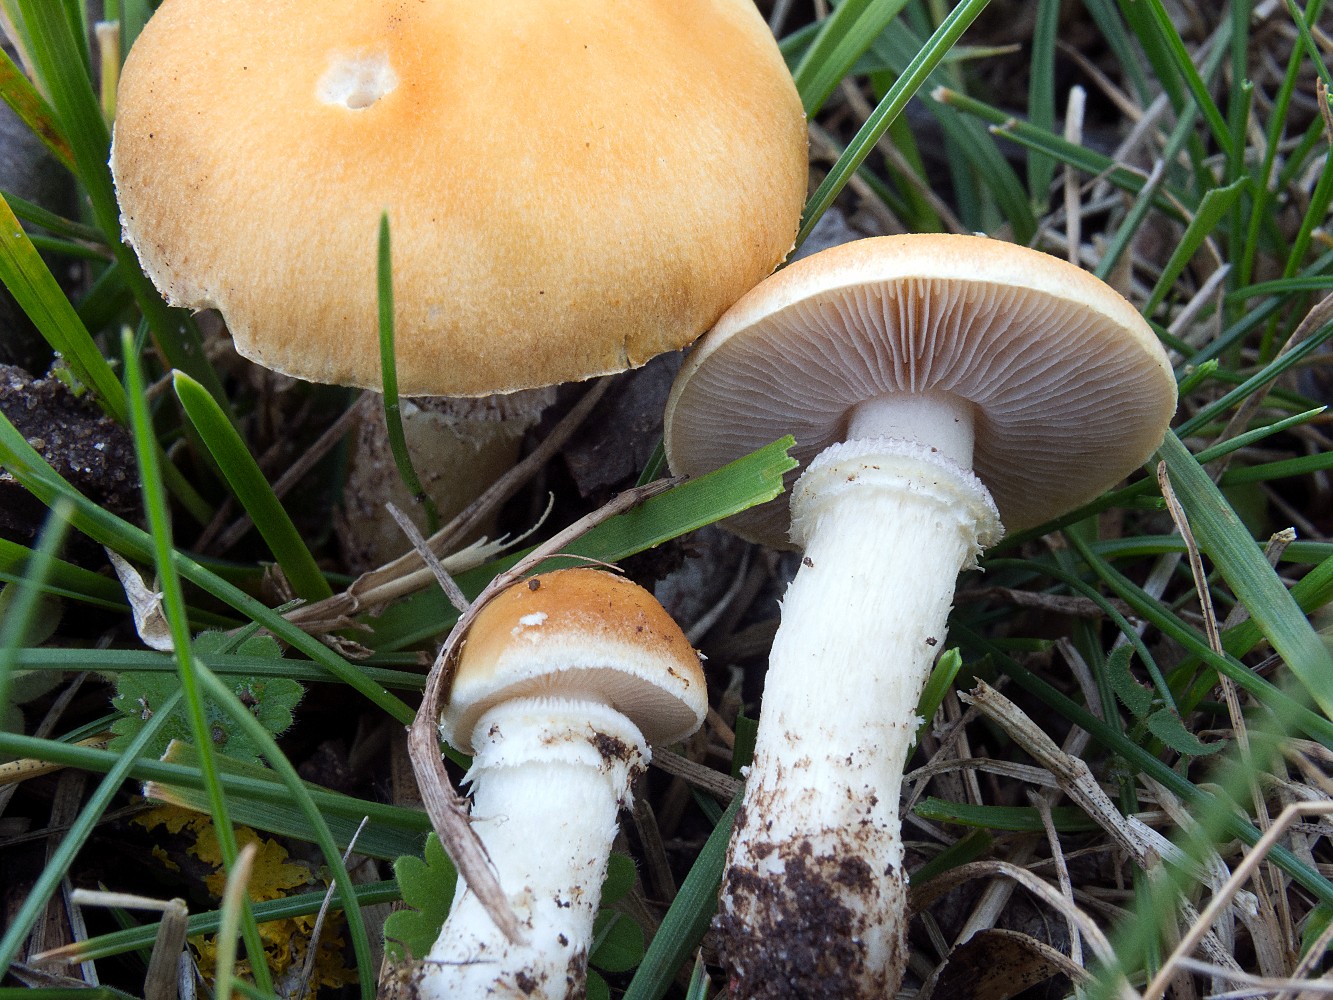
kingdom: Fungi
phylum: Basidiomycota
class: Agaricomycetes
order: Agaricales
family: Hymenogastraceae
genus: Psilocybe
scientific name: Psilocybe coronilla
